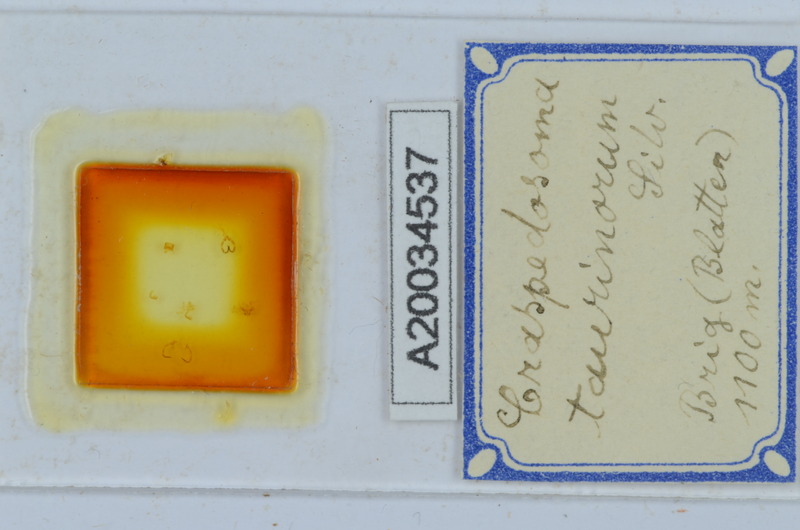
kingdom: Animalia
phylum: Arthropoda
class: Diplopoda
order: Chordeumatida
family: Craspedosomatidae
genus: Craspedosoma
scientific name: Craspedosoma taurinorum
